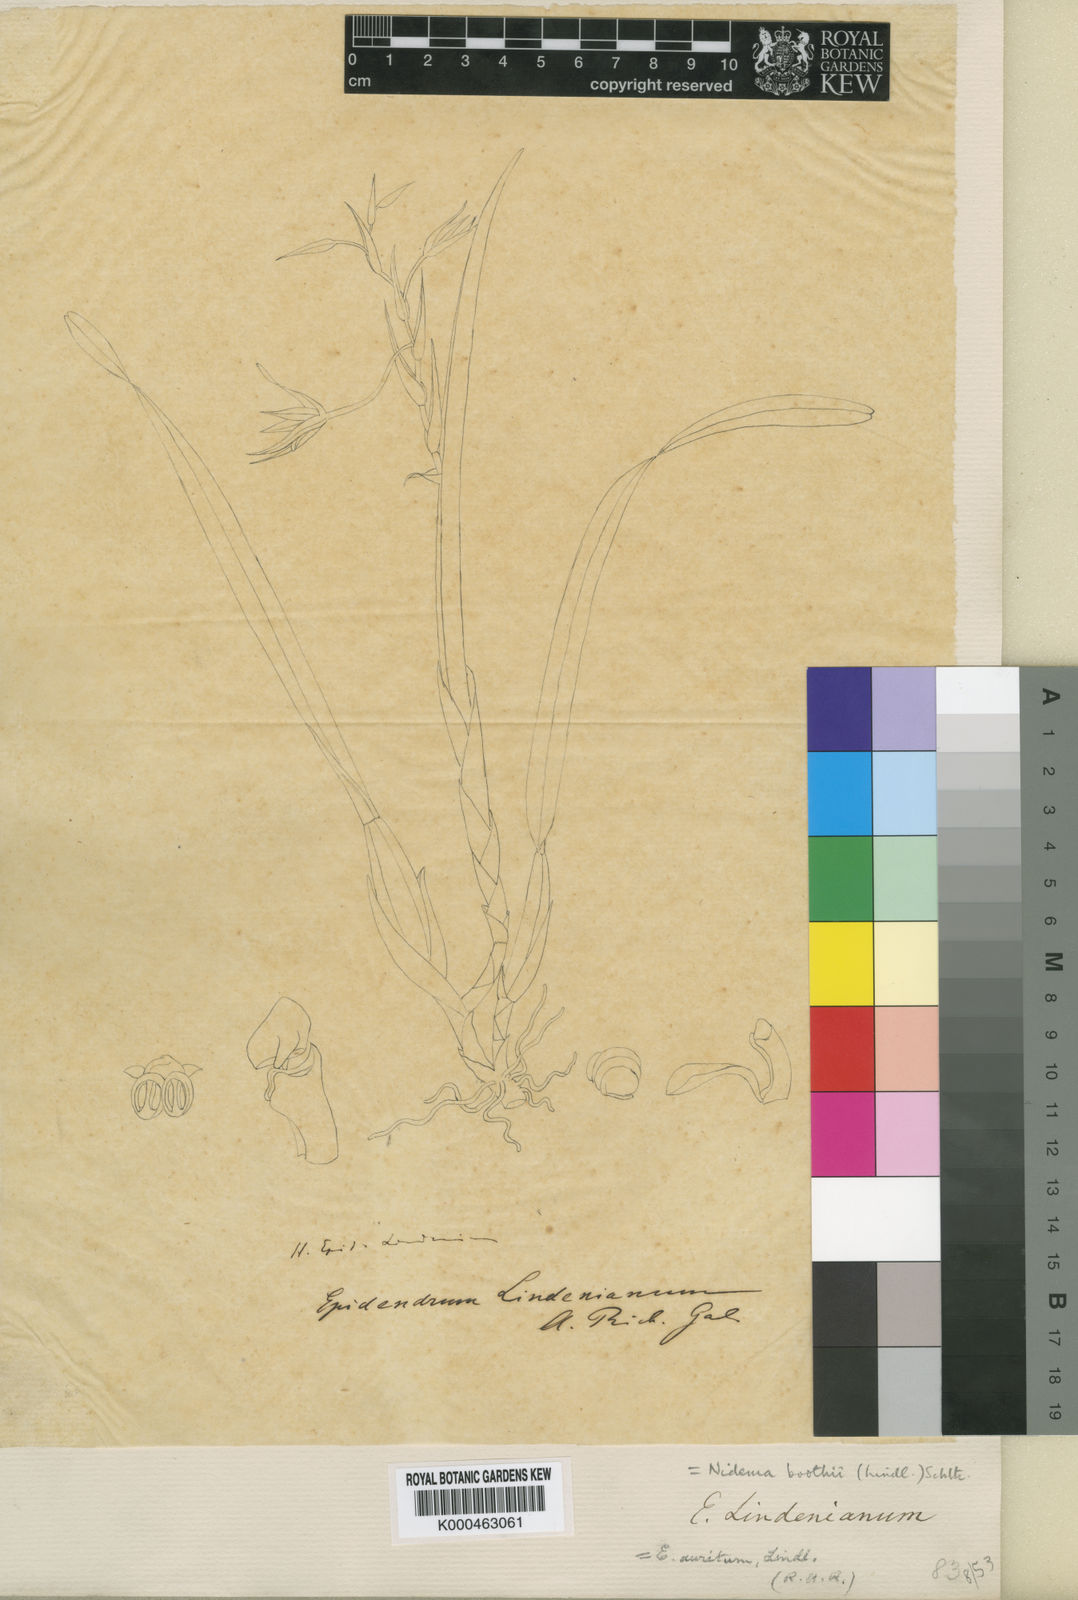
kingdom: Plantae
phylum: Tracheophyta
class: Liliopsida
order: Asparagales
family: Orchidaceae
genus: Nidema
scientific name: Nidema boothii
